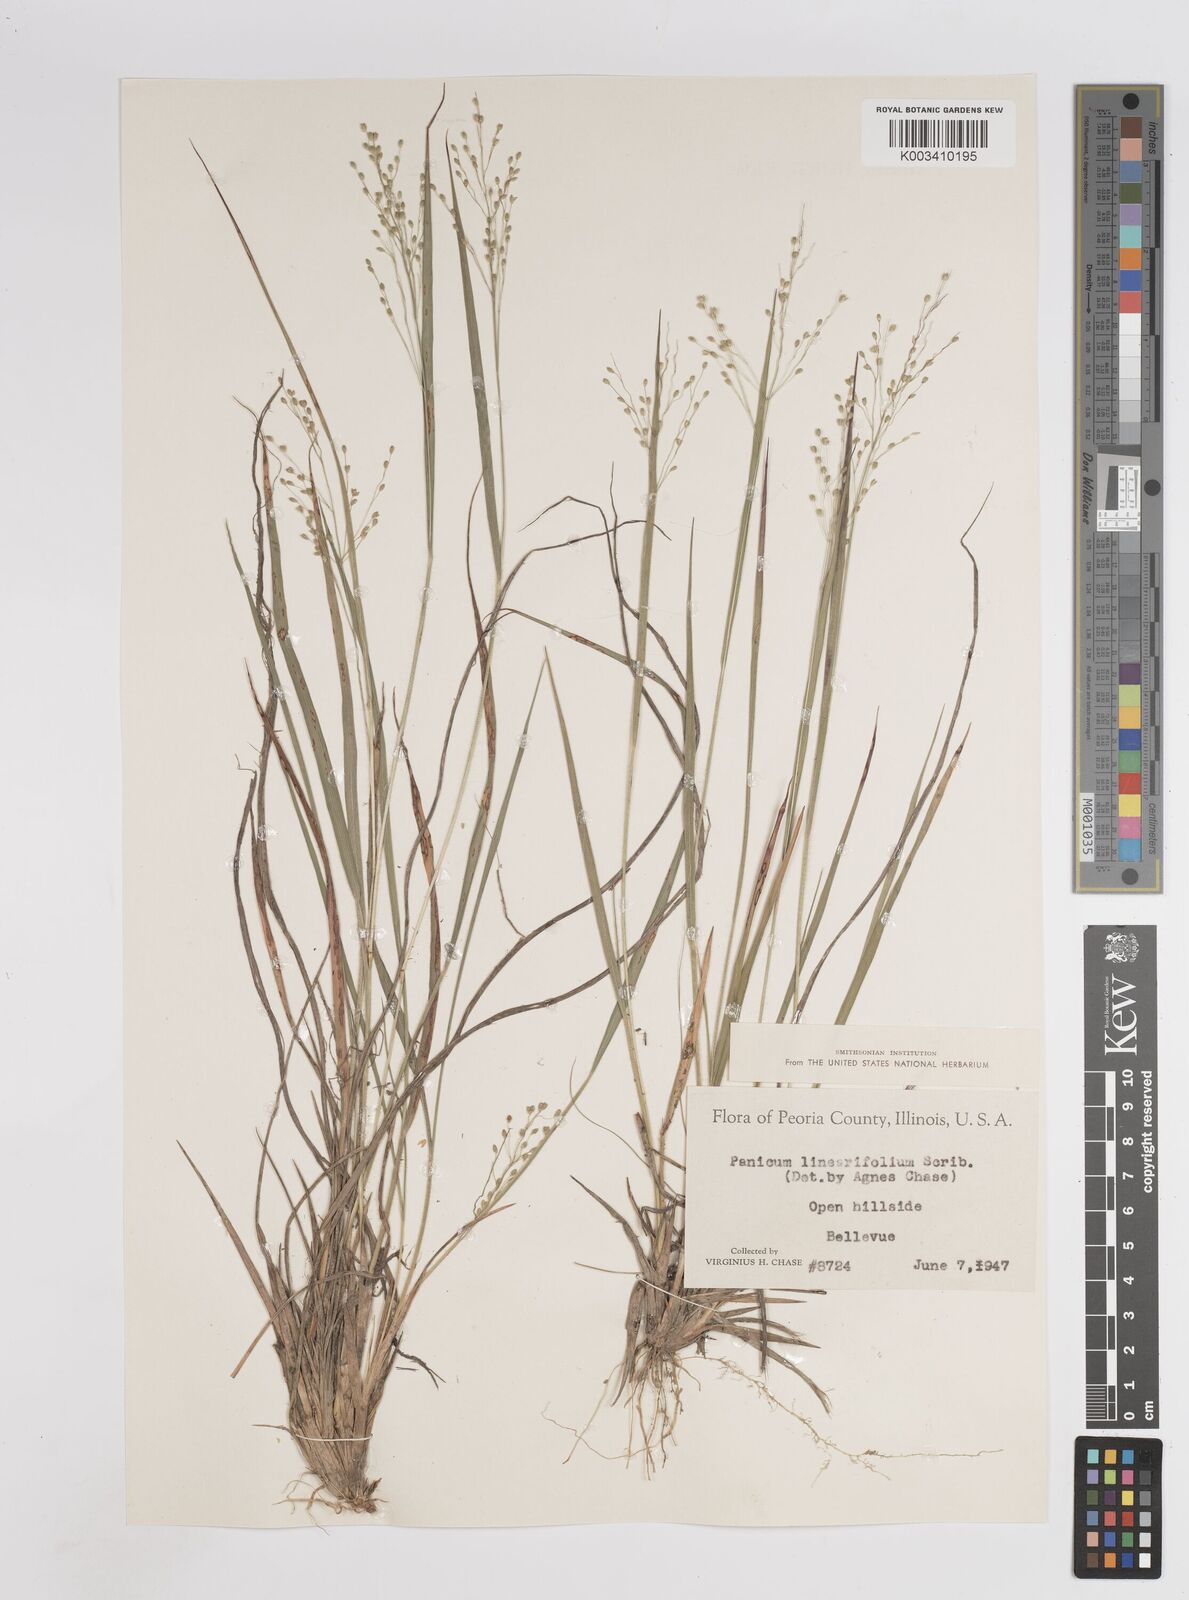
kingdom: Plantae
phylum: Tracheophyta
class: Liliopsida
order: Poales
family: Poaceae
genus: Dichanthelium
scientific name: Dichanthelium linearifolium
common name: Linear-leaved panicgrass
